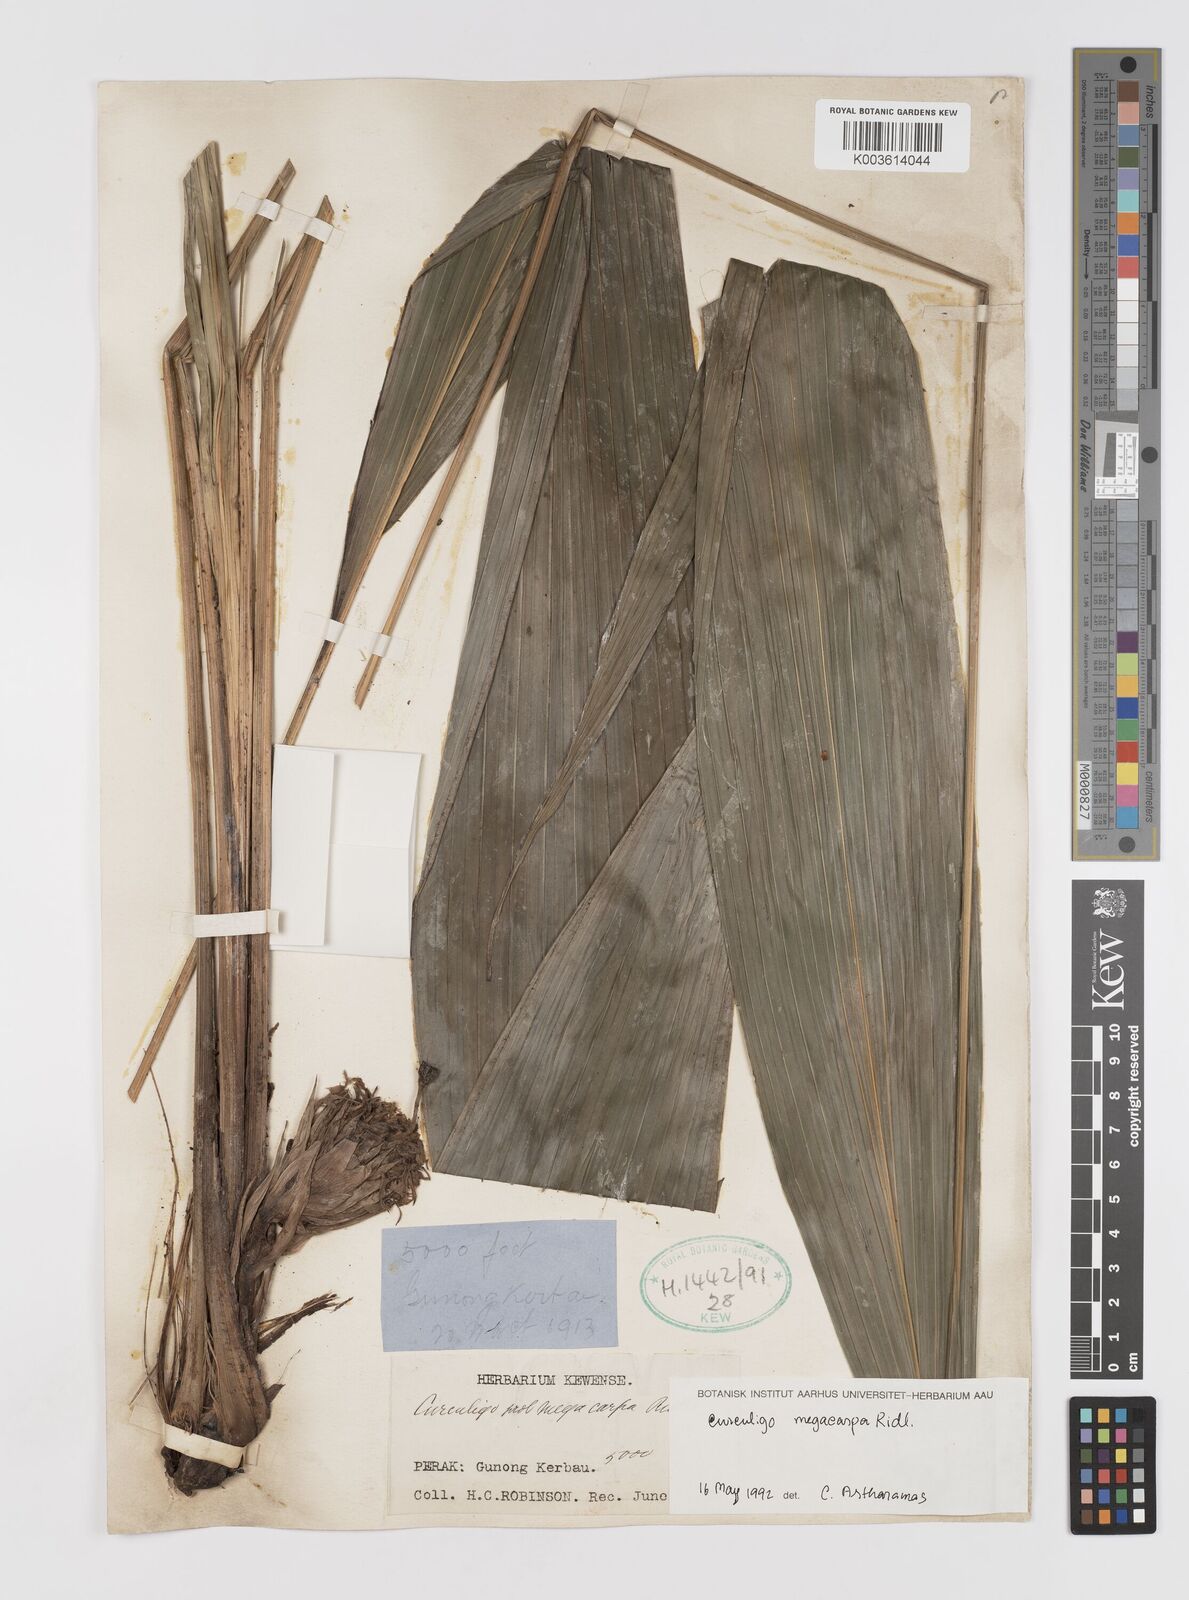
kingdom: Plantae
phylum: Tracheophyta
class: Liliopsida
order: Asparagales
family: Hypoxidaceae
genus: Curculigo
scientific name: Curculigo latifolia
